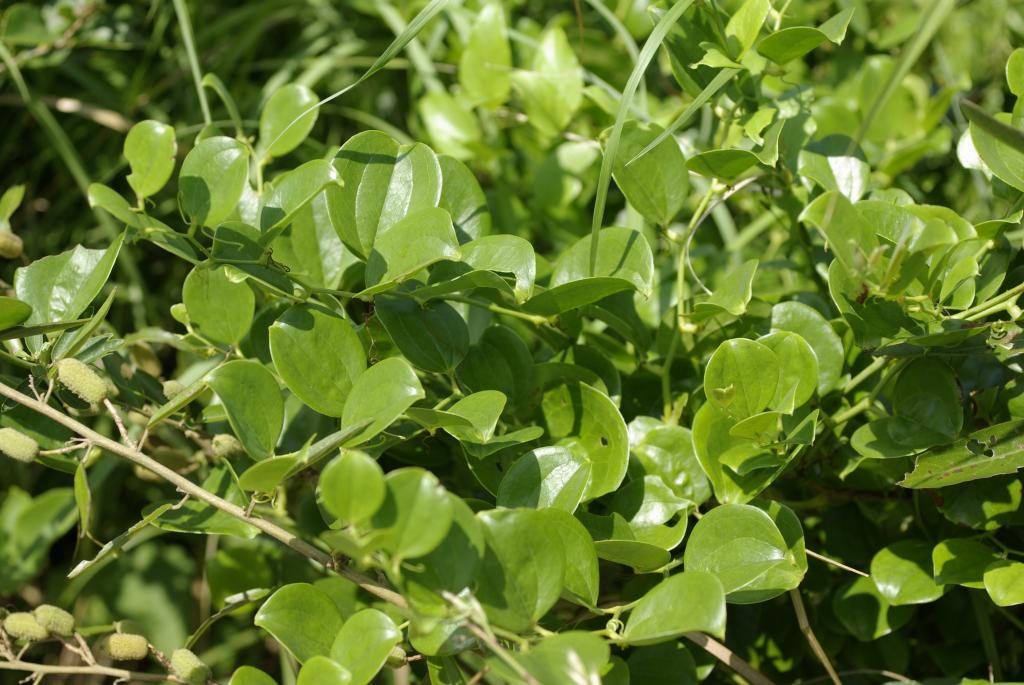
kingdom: Plantae
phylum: Tracheophyta
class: Liliopsida
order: Liliales
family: Smilacaceae
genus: Smilax
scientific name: Smilax china
